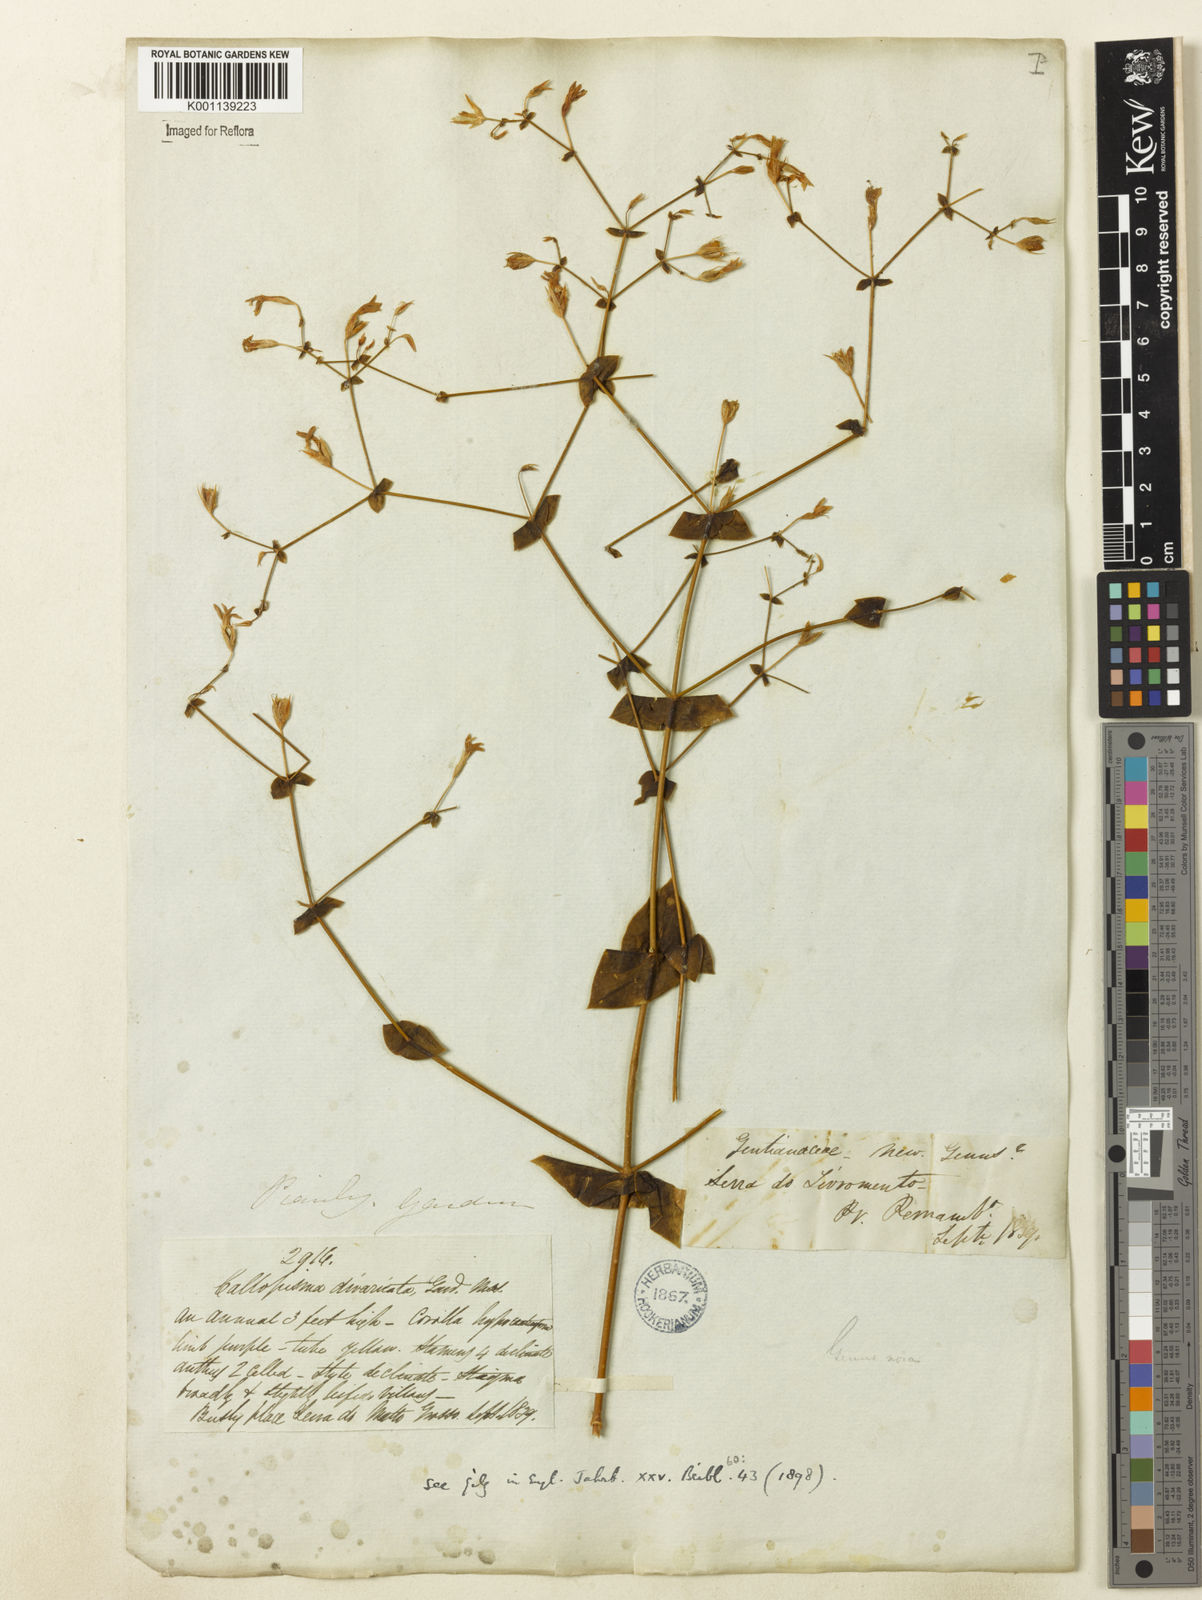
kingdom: Plantae
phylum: Tracheophyta
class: Magnoliopsida
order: Gentianales
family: Gentianaceae
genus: Symphyllophyton
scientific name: Symphyllophyton caprifolioides
